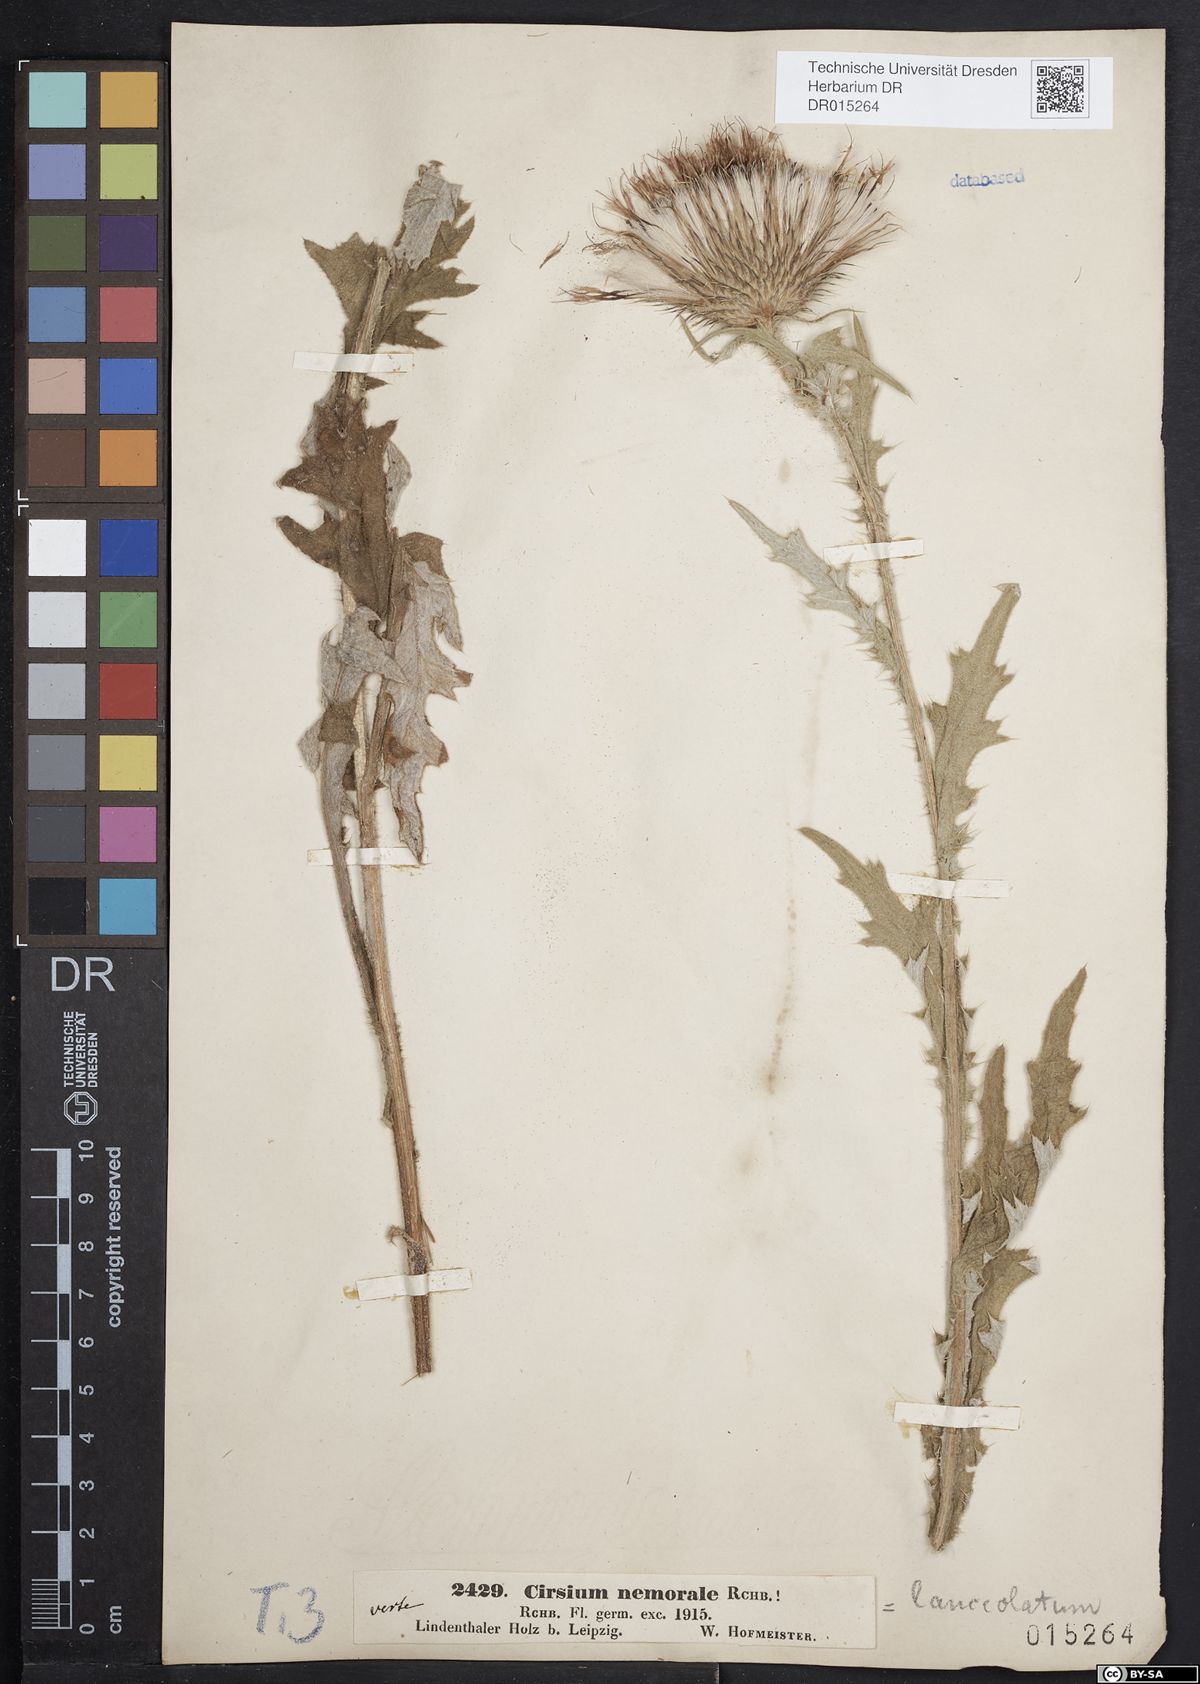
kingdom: Plantae
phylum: Tracheophyta
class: Magnoliopsida
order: Asterales
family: Asteraceae
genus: Cirsium
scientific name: Cirsium vulgare
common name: Bull thistle
